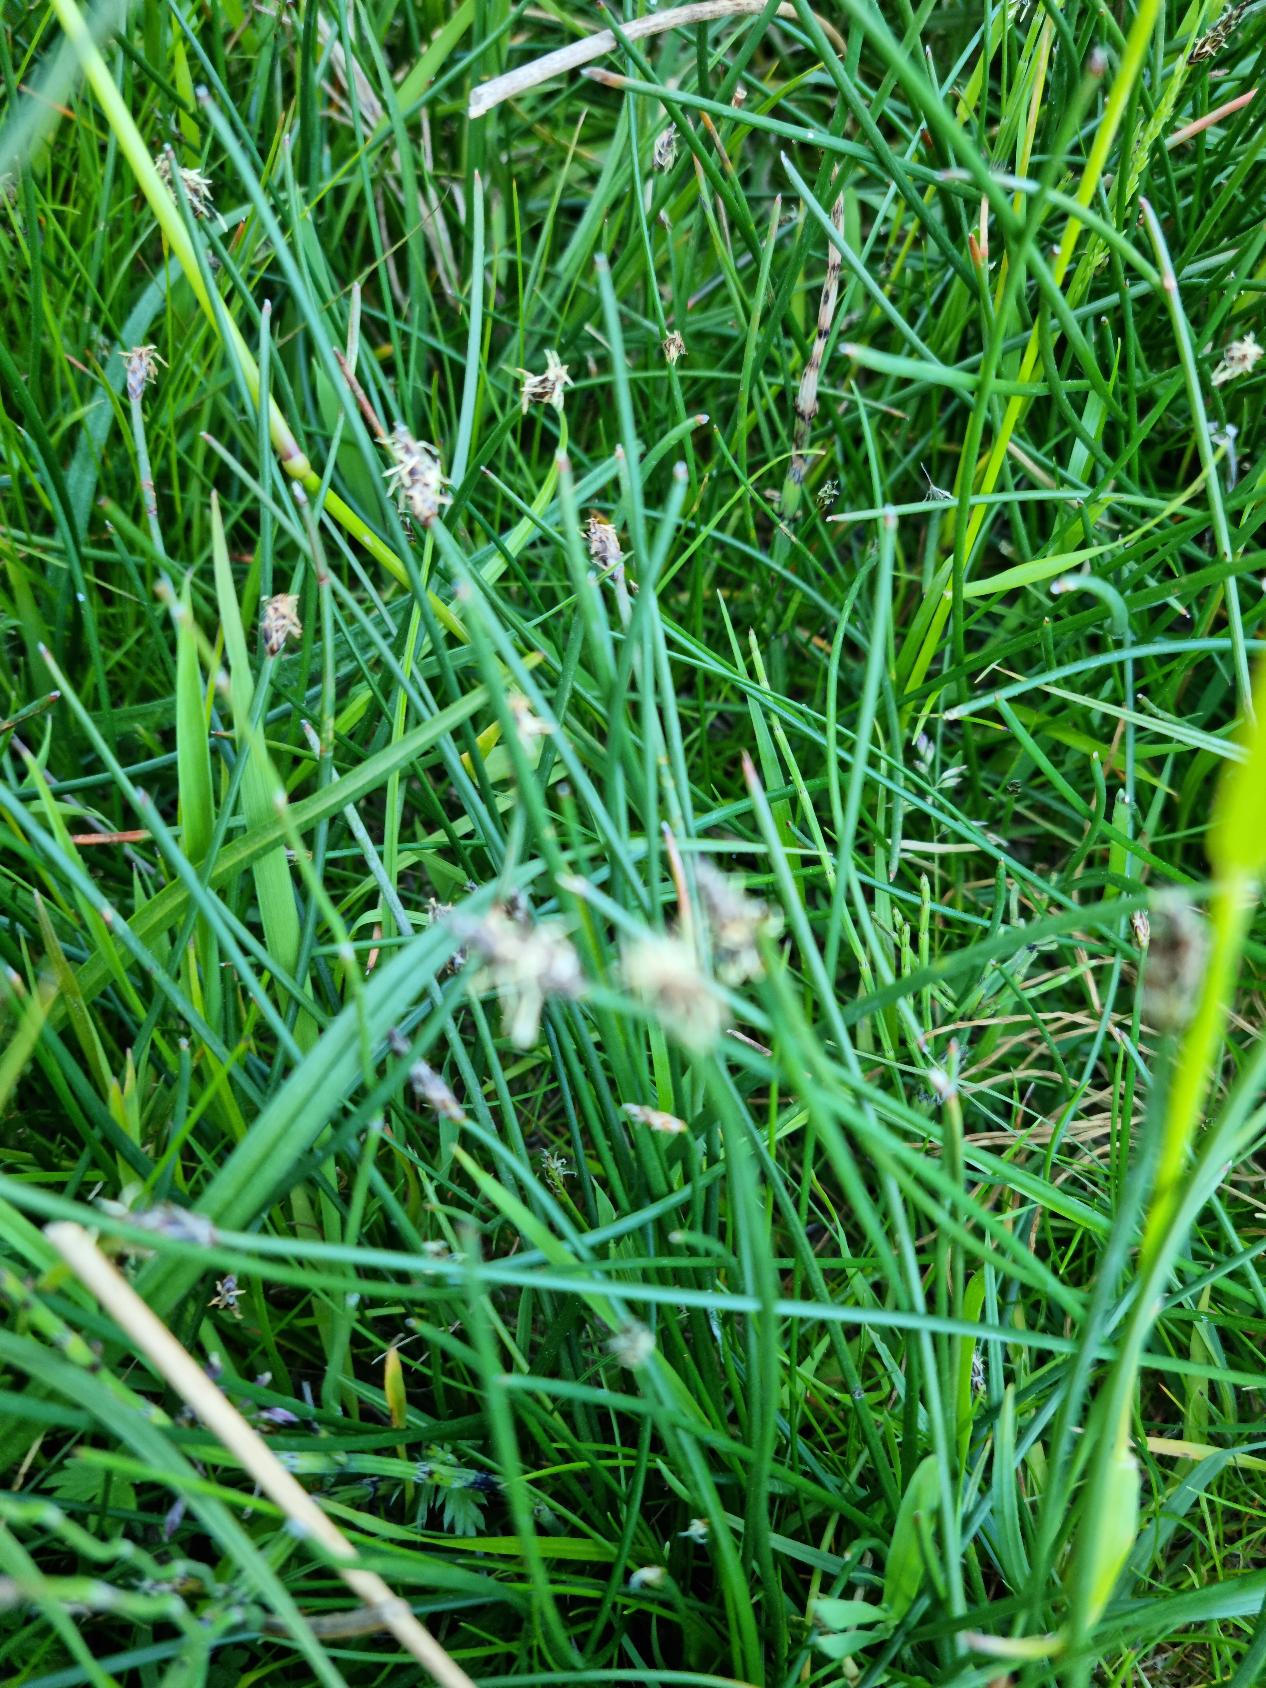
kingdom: Plantae
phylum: Tracheophyta
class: Liliopsida
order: Poales
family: Cyperaceae
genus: Eleocharis
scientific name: Eleocharis palustris
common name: Almindelig sumpstrå
